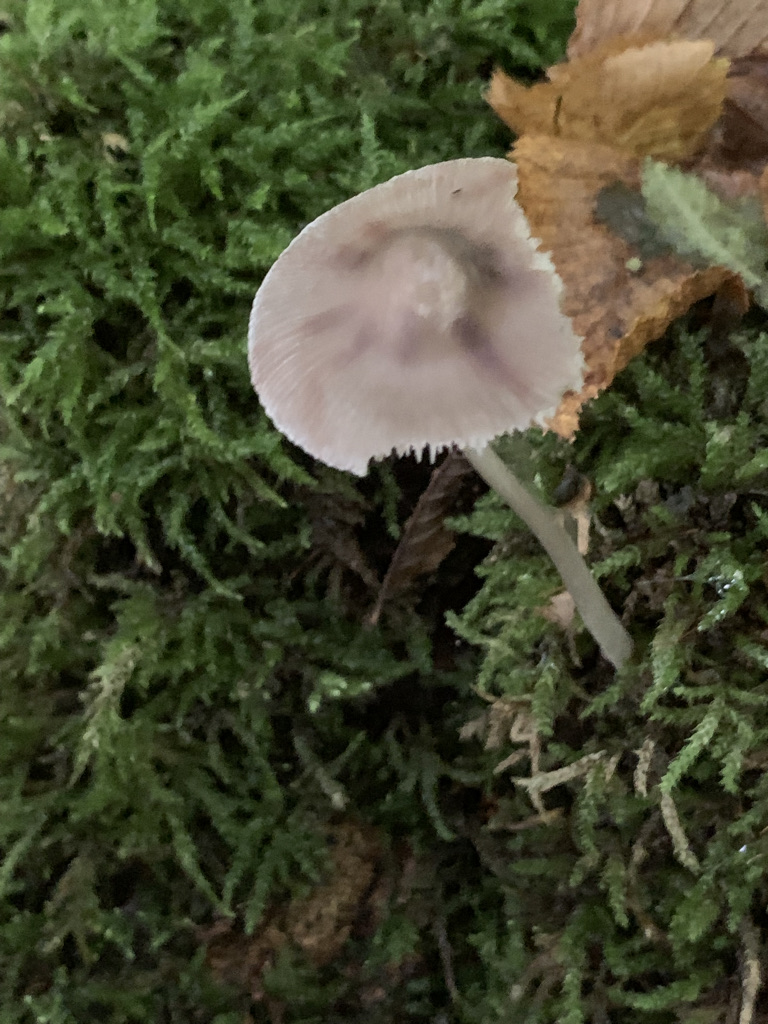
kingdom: Fungi
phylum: Basidiomycota
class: Agaricomycetes
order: Agaricales
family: Physalacriaceae
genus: Hymenopellis
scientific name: Hymenopellis radicata
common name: almindelig pælerodshat
